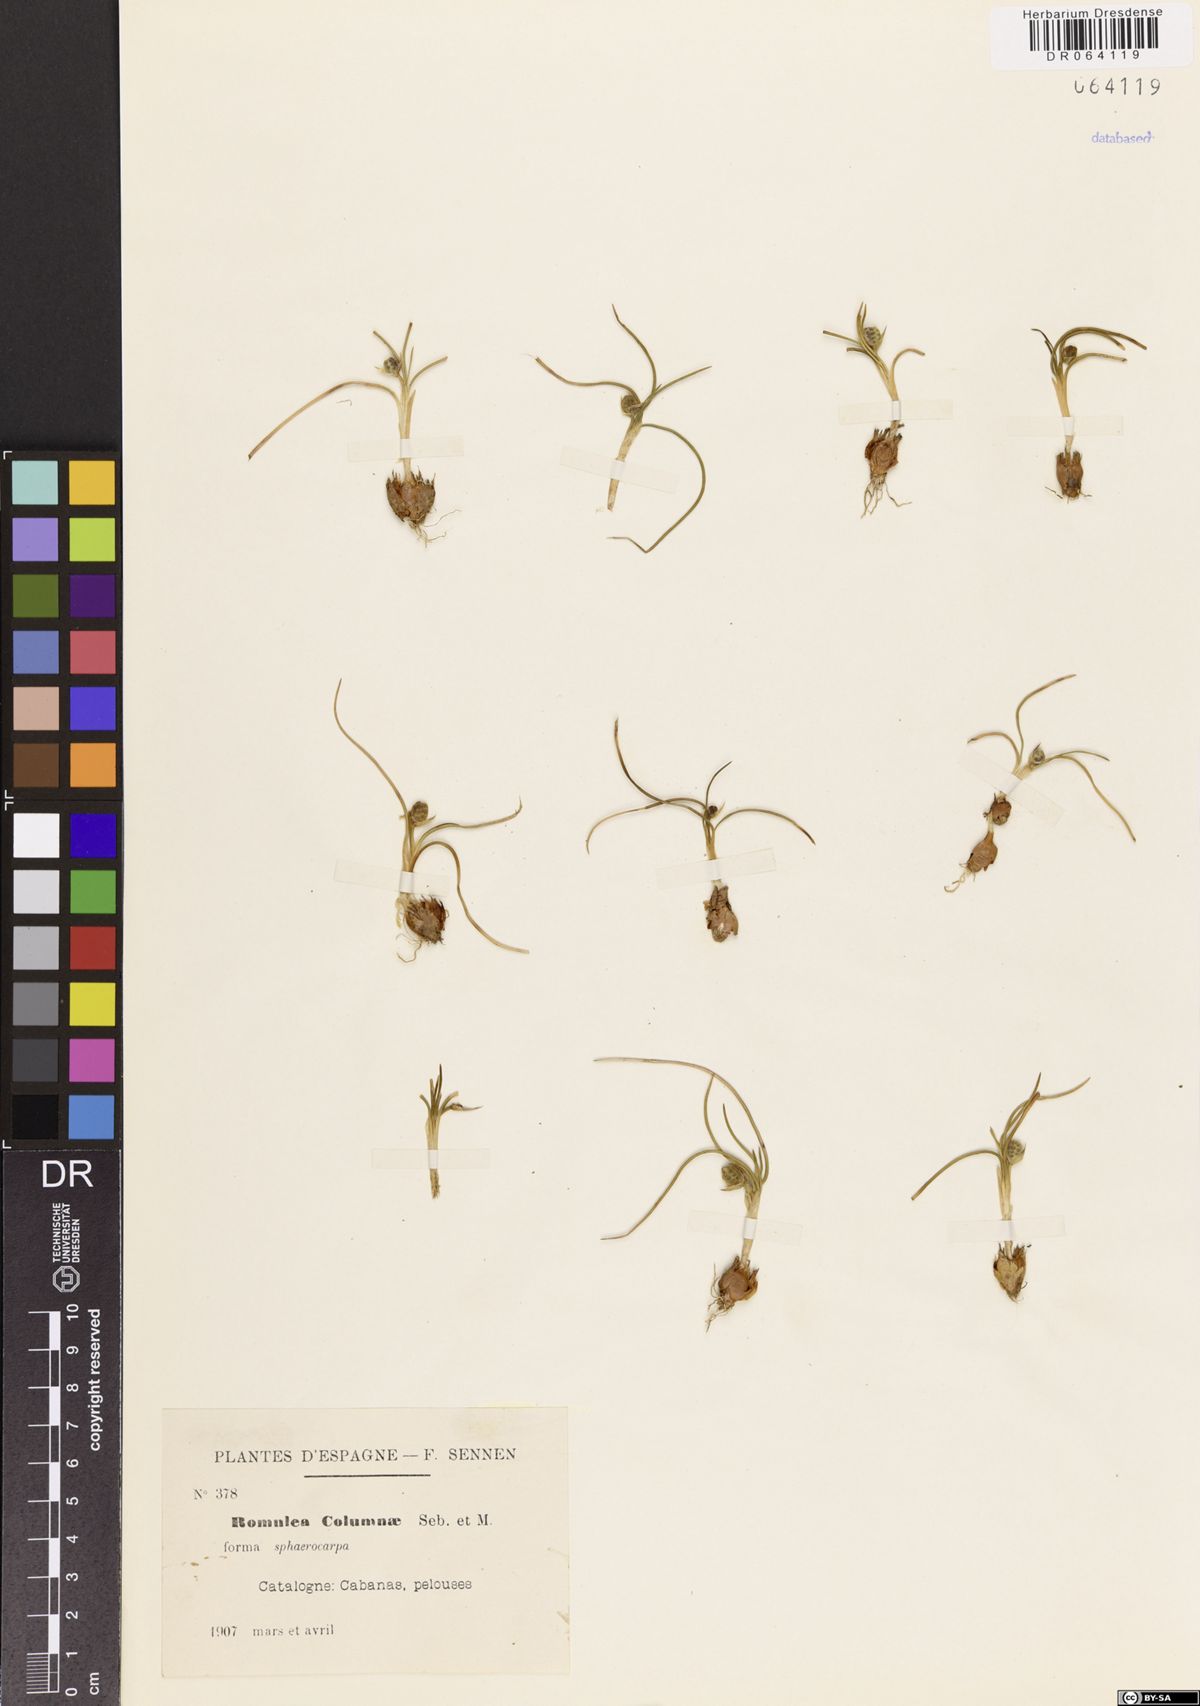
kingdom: Plantae
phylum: Tracheophyta
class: Liliopsida
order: Asparagales
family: Iridaceae
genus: Romulea
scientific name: Romulea columnae
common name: Sand-crocus
